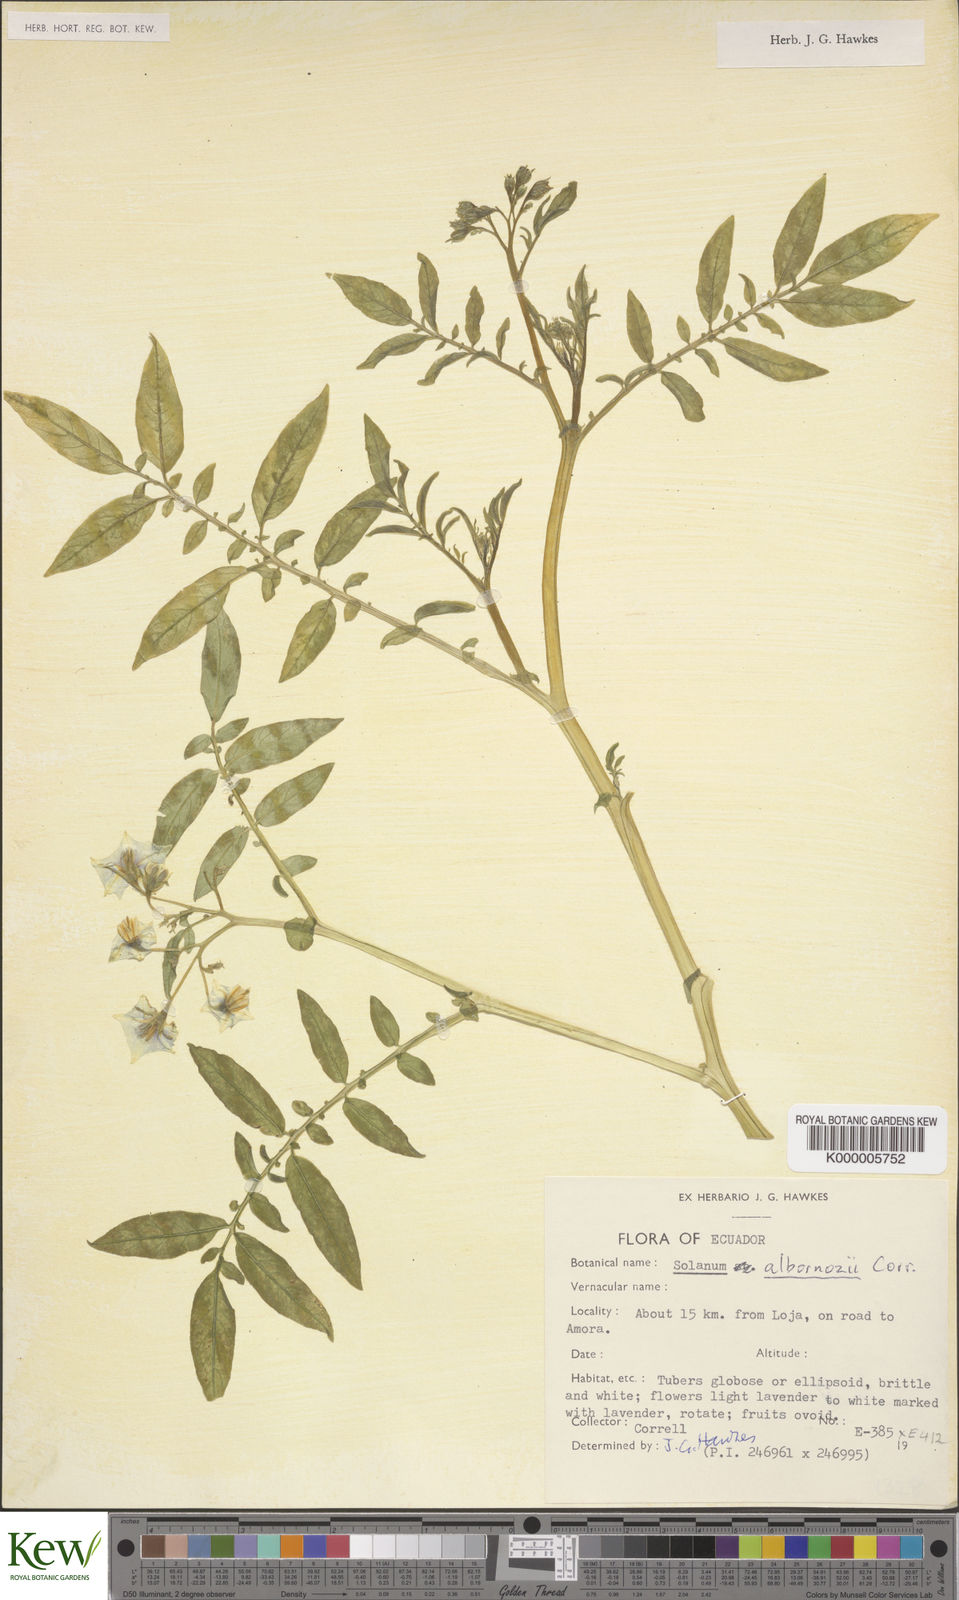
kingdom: Plantae
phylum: Tracheophyta
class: Magnoliopsida
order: Solanales
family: Solanaceae
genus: Solanum
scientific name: Solanum andreanum
